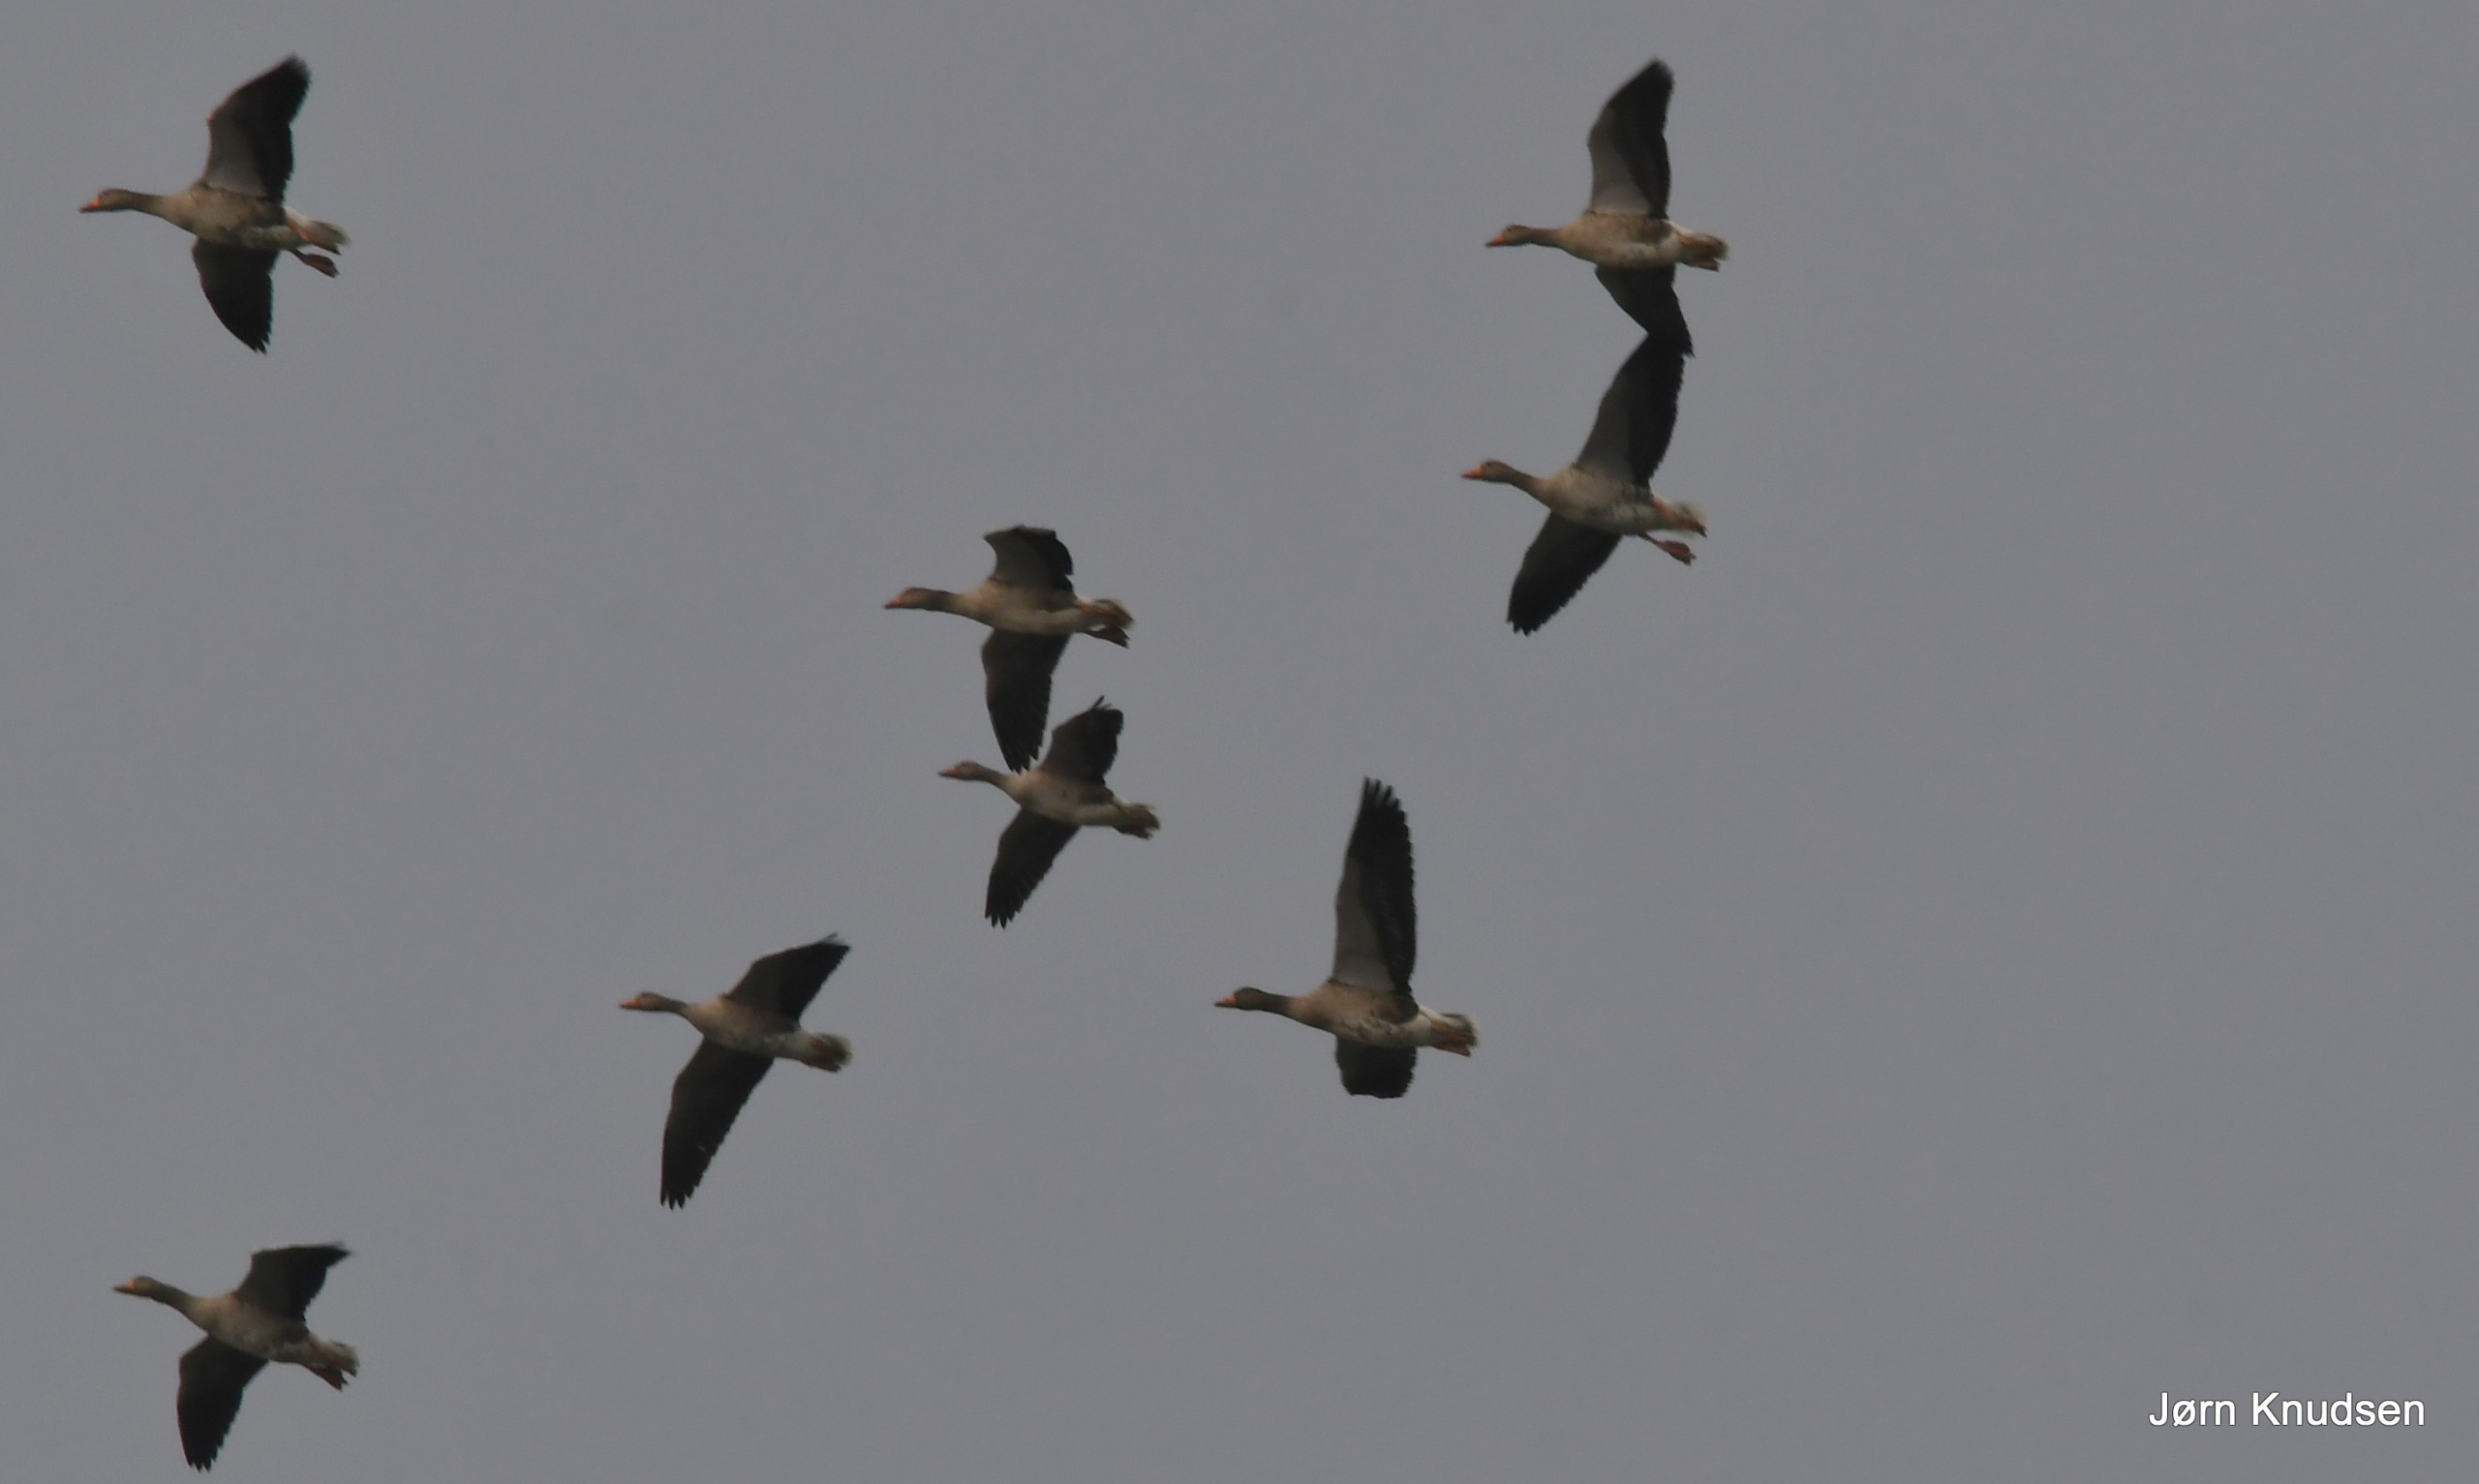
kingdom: Animalia
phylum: Chordata
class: Aves
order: Anseriformes
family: Anatidae
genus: Anser
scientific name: Anser anser
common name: Grågås
